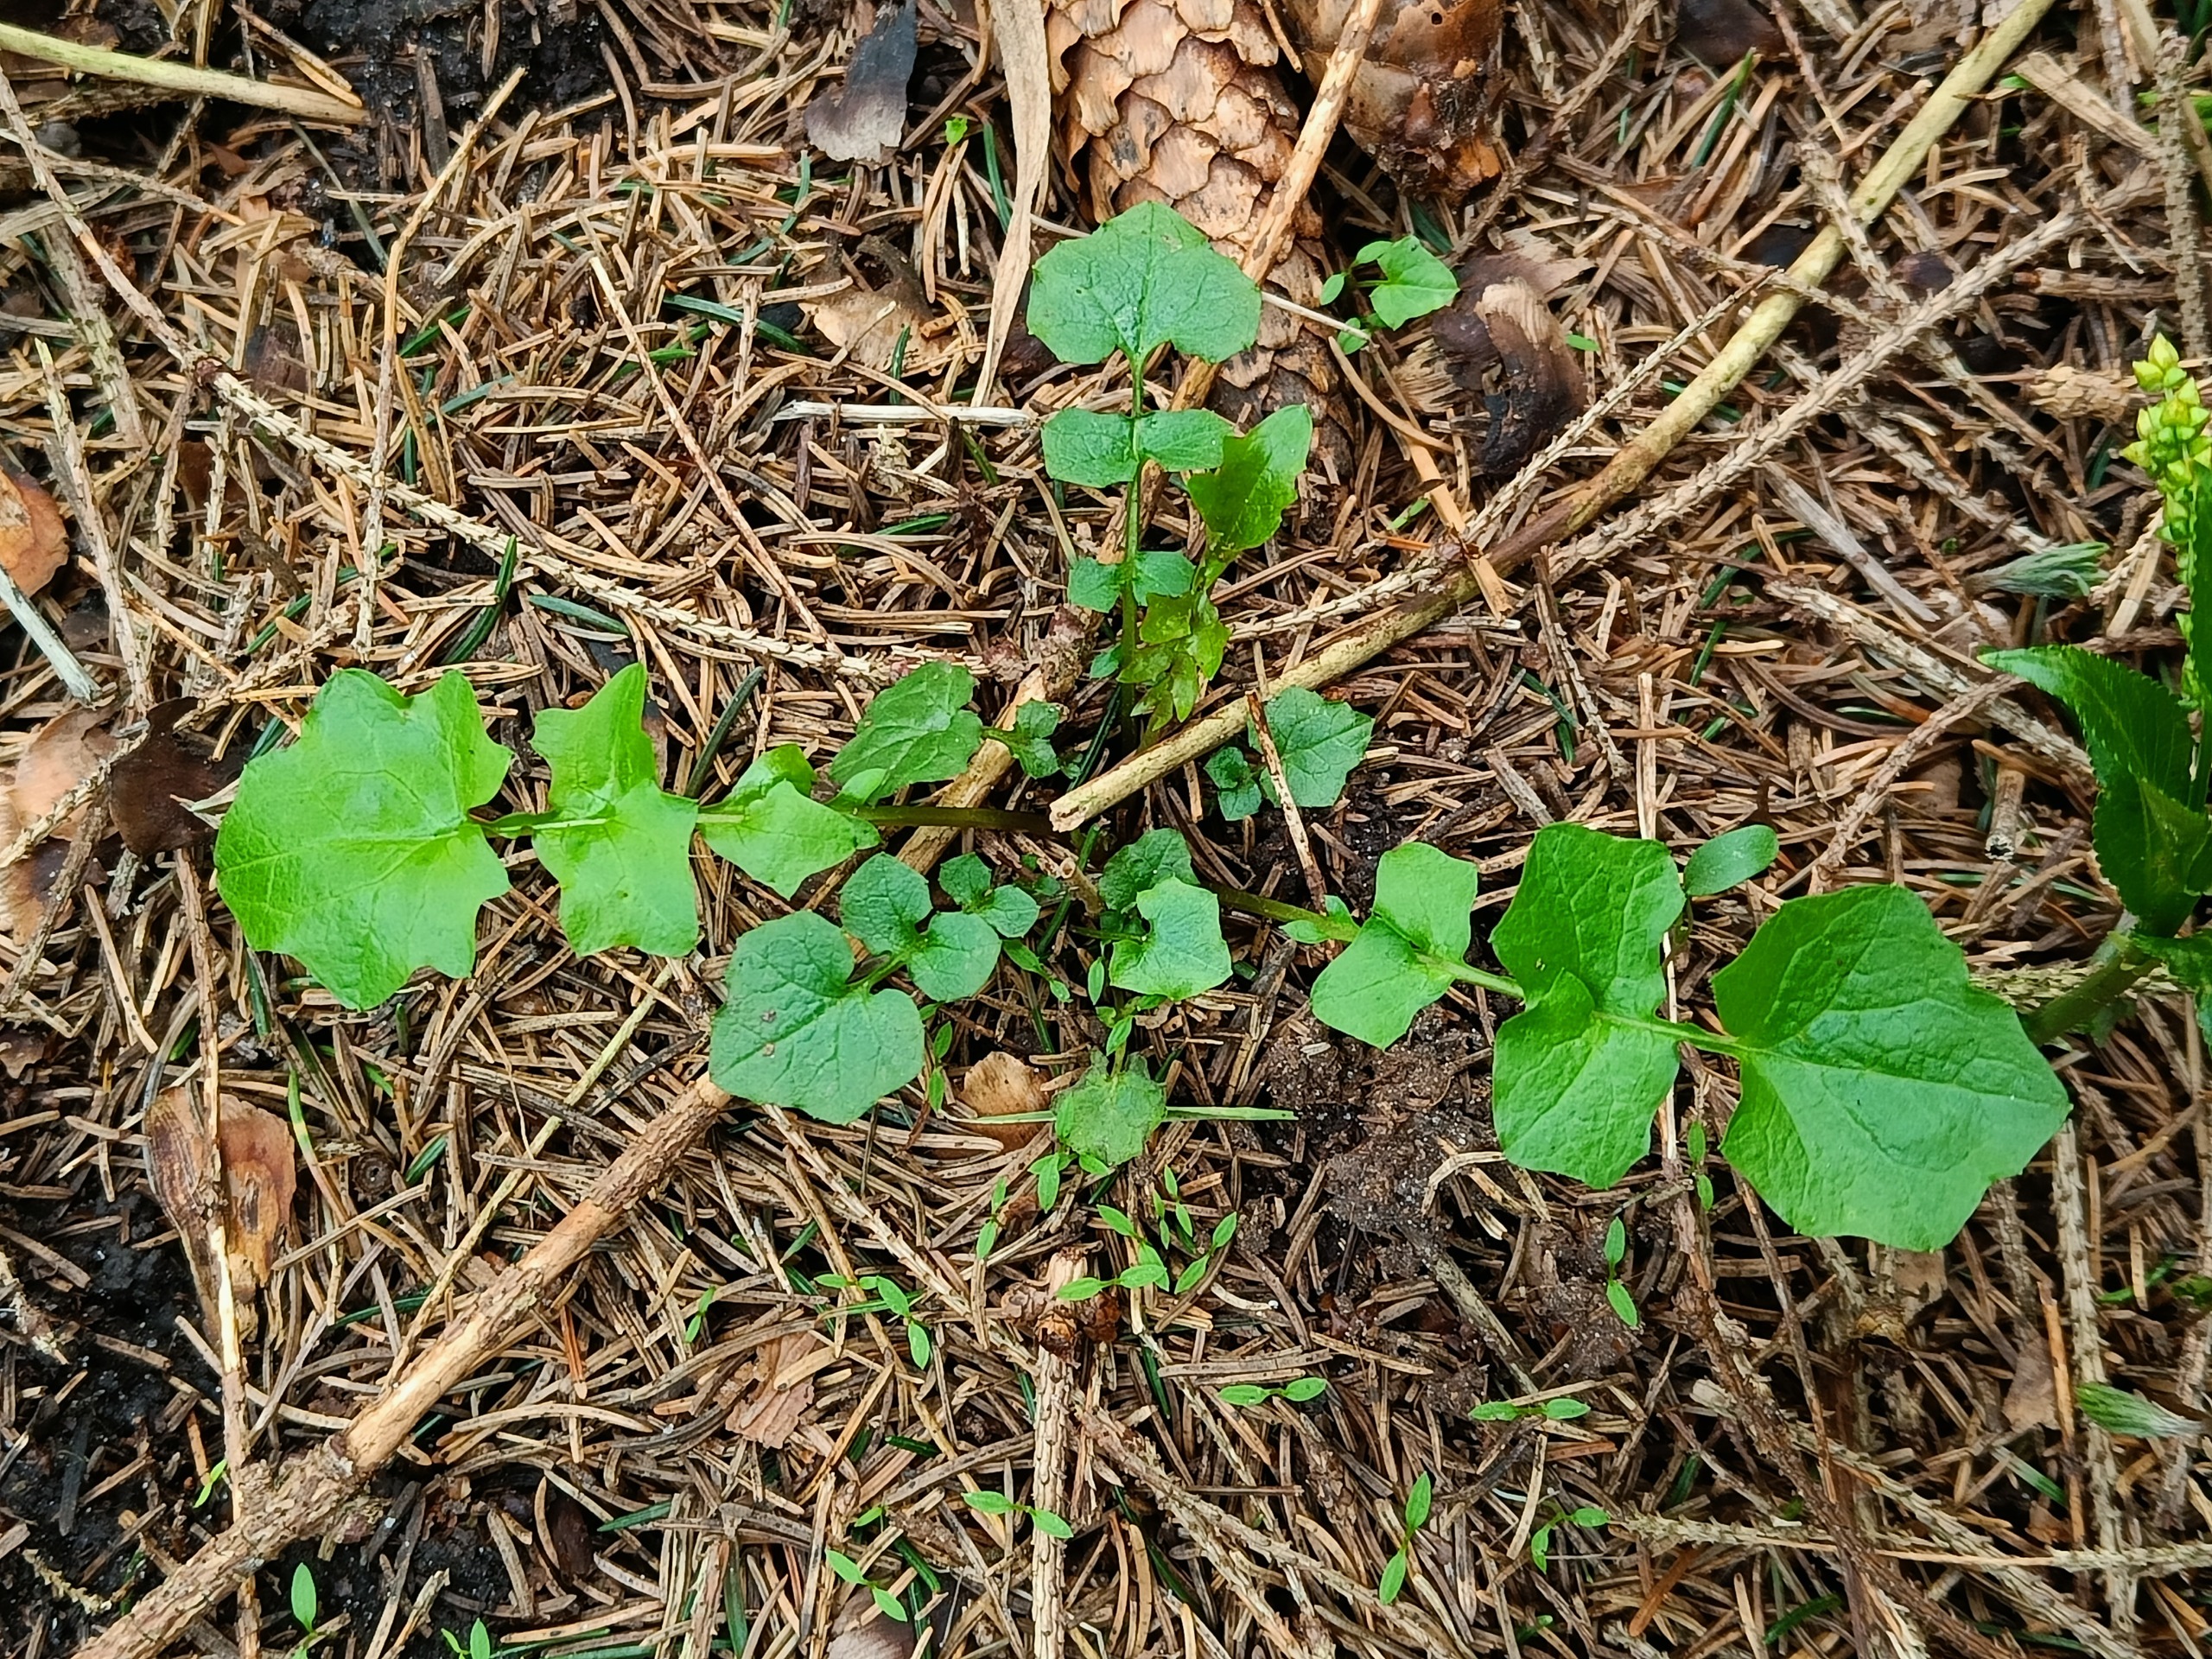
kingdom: Plantae
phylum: Tracheophyta
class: Magnoliopsida
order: Asterales
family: Asteraceae
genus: Mycelis
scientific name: Mycelis muralis
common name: Skov-salat
